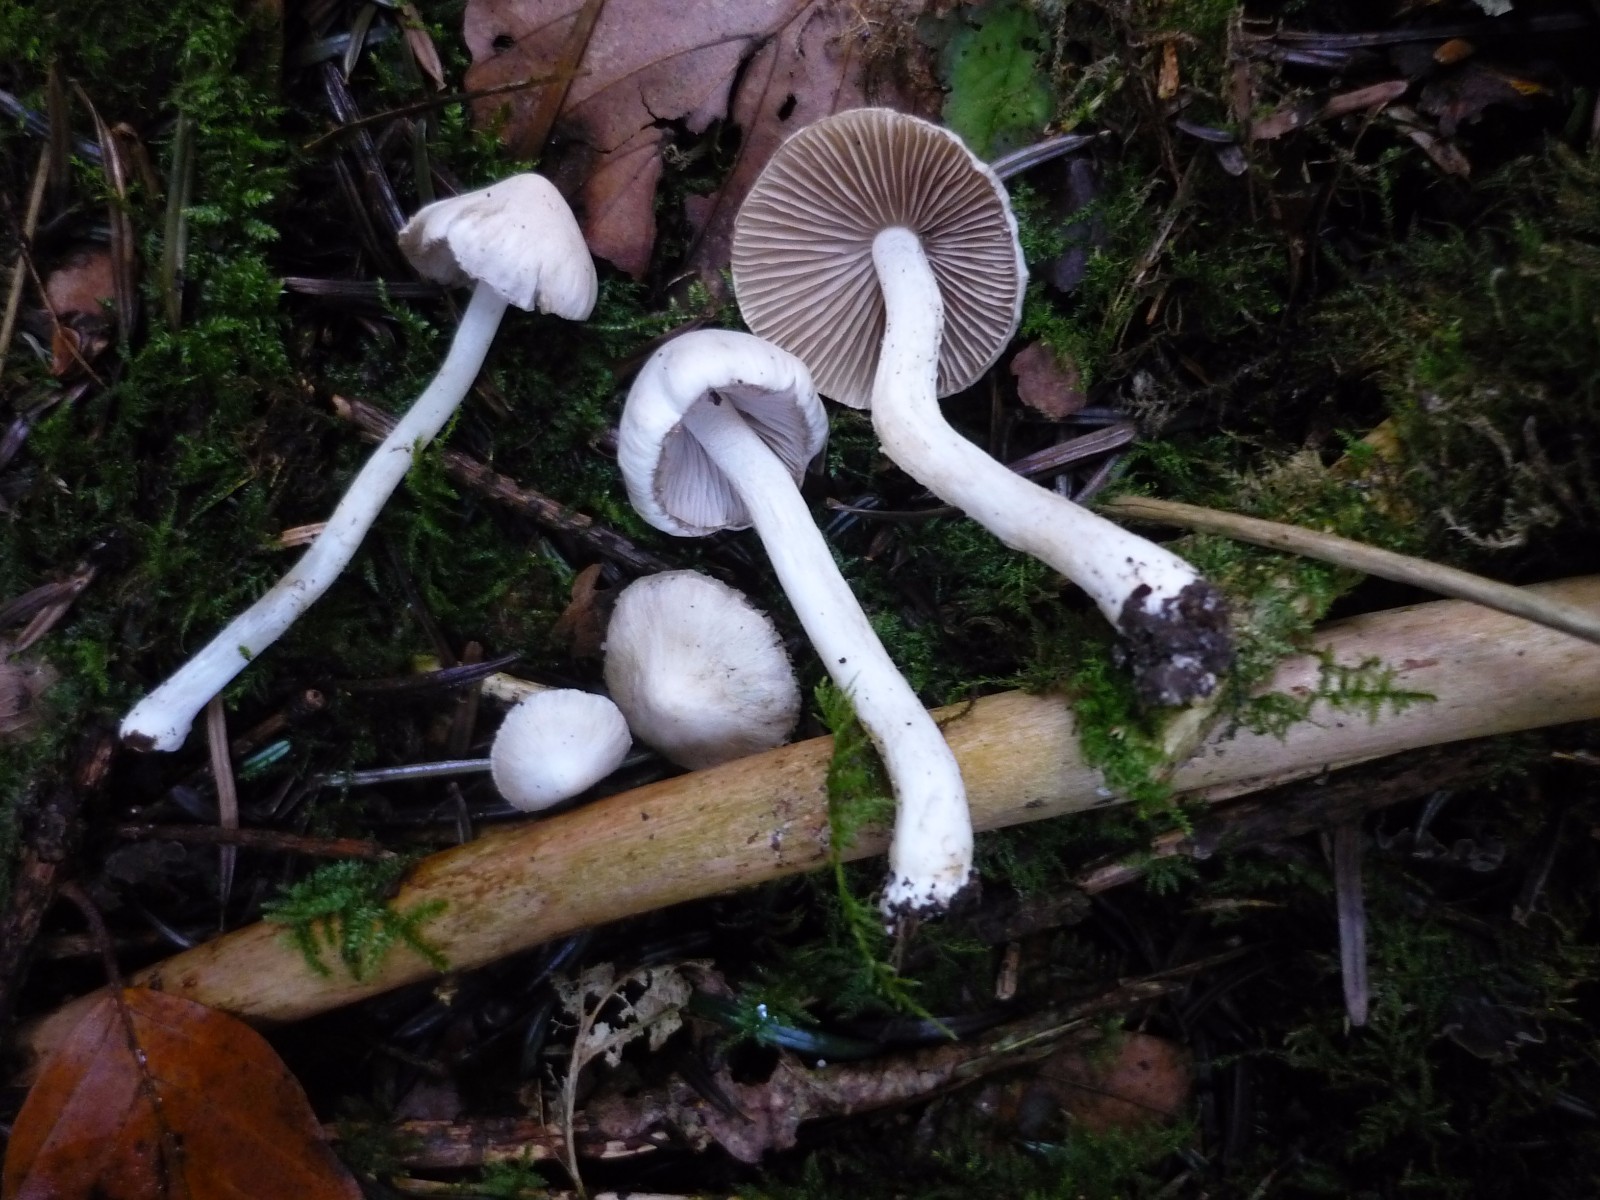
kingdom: Fungi
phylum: Basidiomycota
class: Agaricomycetes
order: Agaricales
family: Inocybaceae
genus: Inocybe
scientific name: Inocybe
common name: almindelig trævlhat
